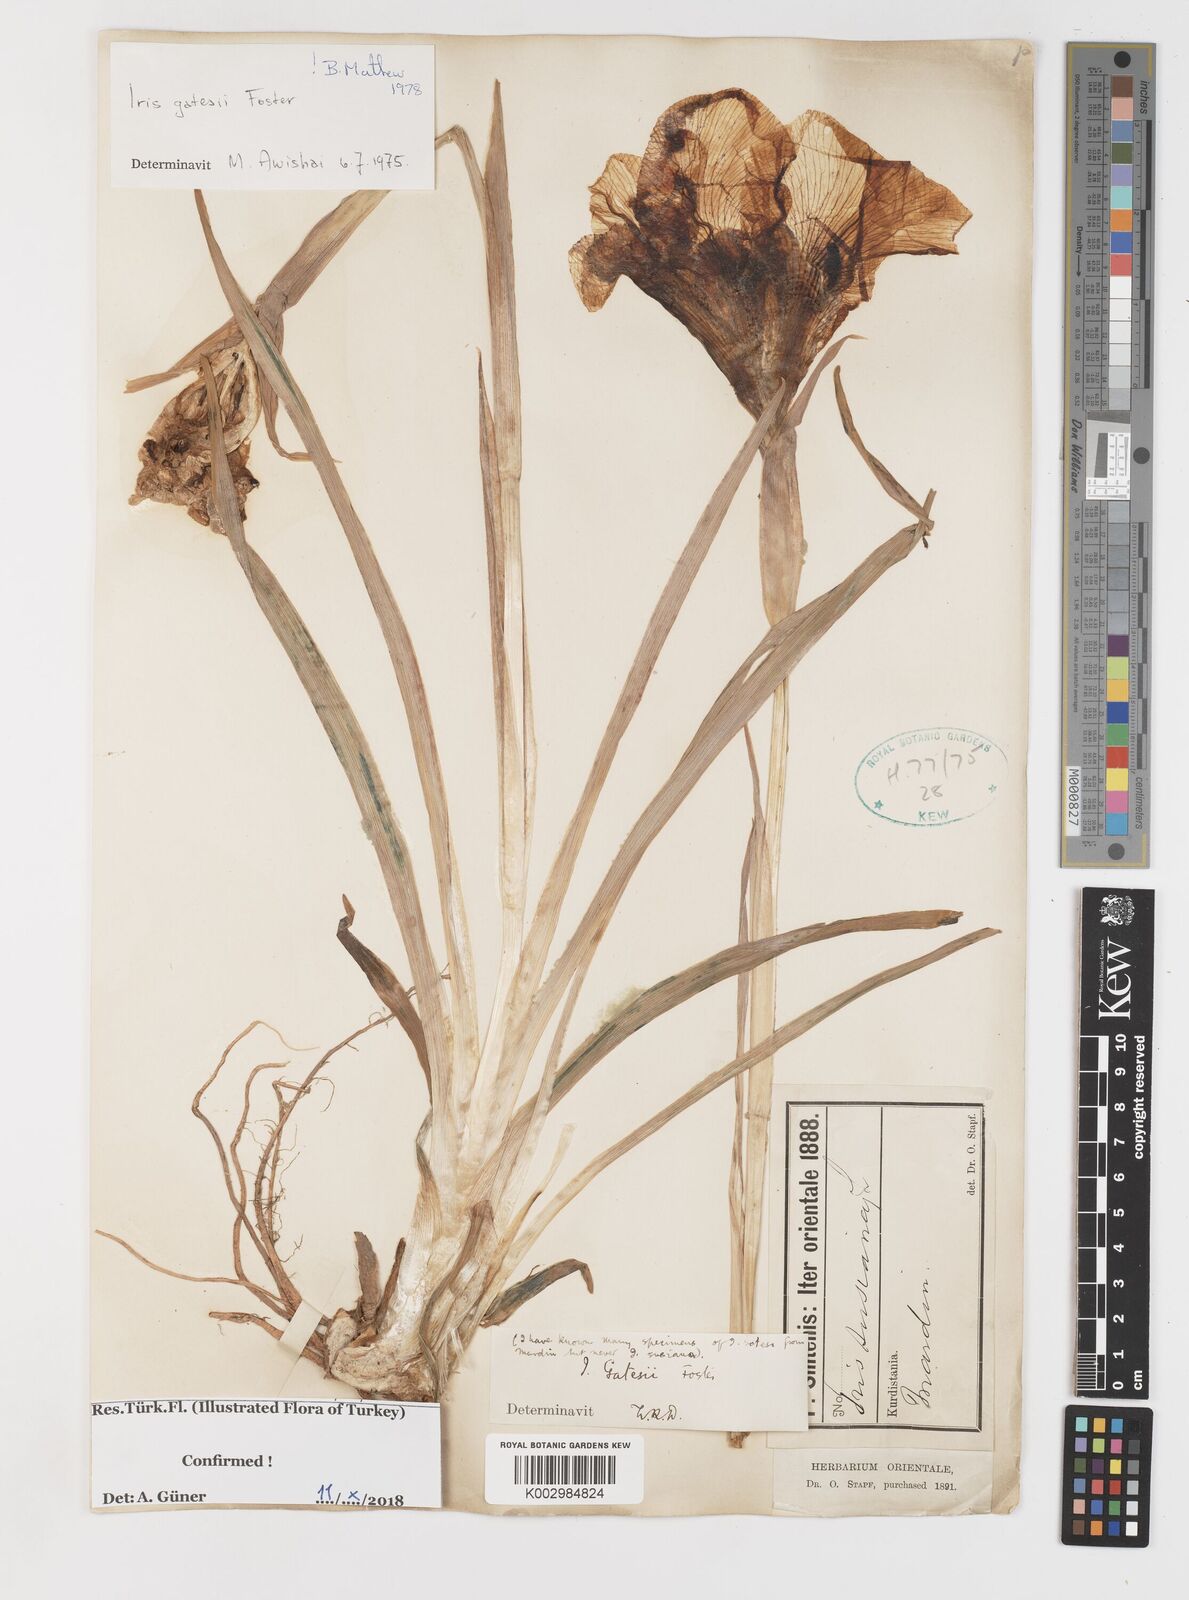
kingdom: Plantae
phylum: Tracheophyta
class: Liliopsida
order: Asparagales
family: Iridaceae
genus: Iris
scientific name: Iris gatesii
